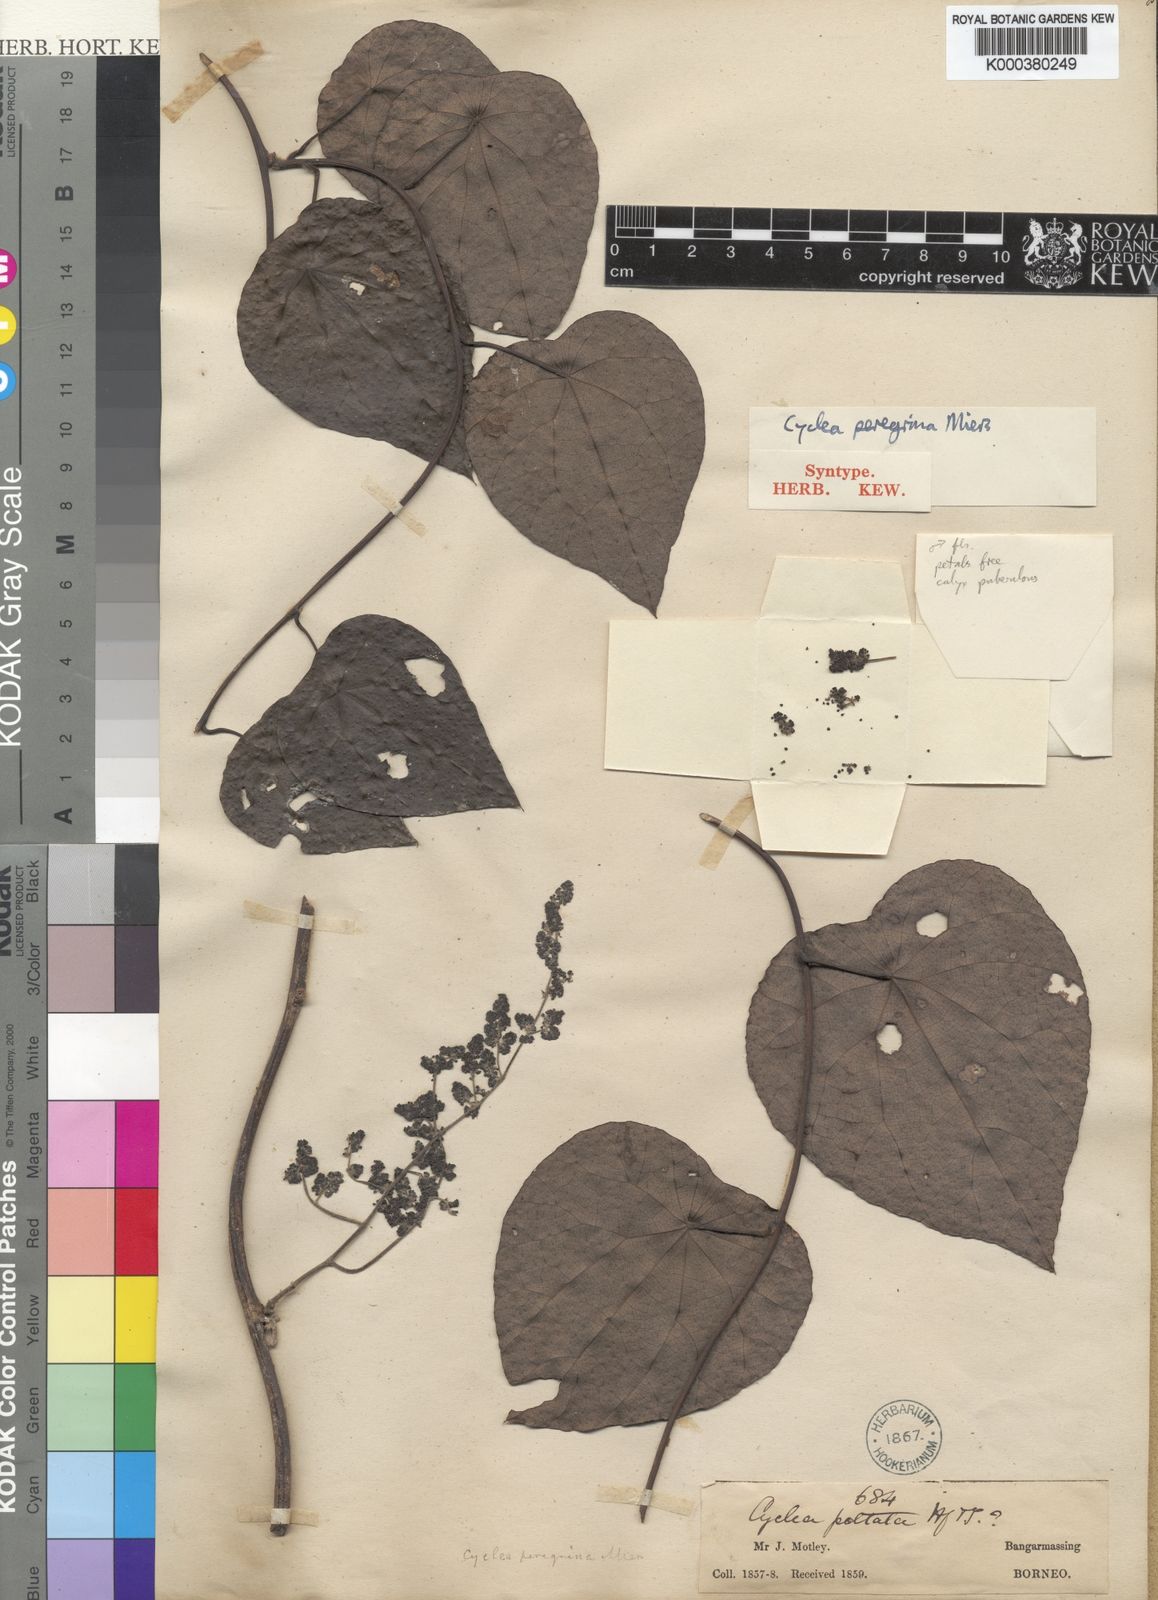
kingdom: Plantae
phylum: Tracheophyta
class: Magnoliopsida
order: Ranunculales
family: Menispermaceae
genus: Cyclea
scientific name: Cyclea peregrina
